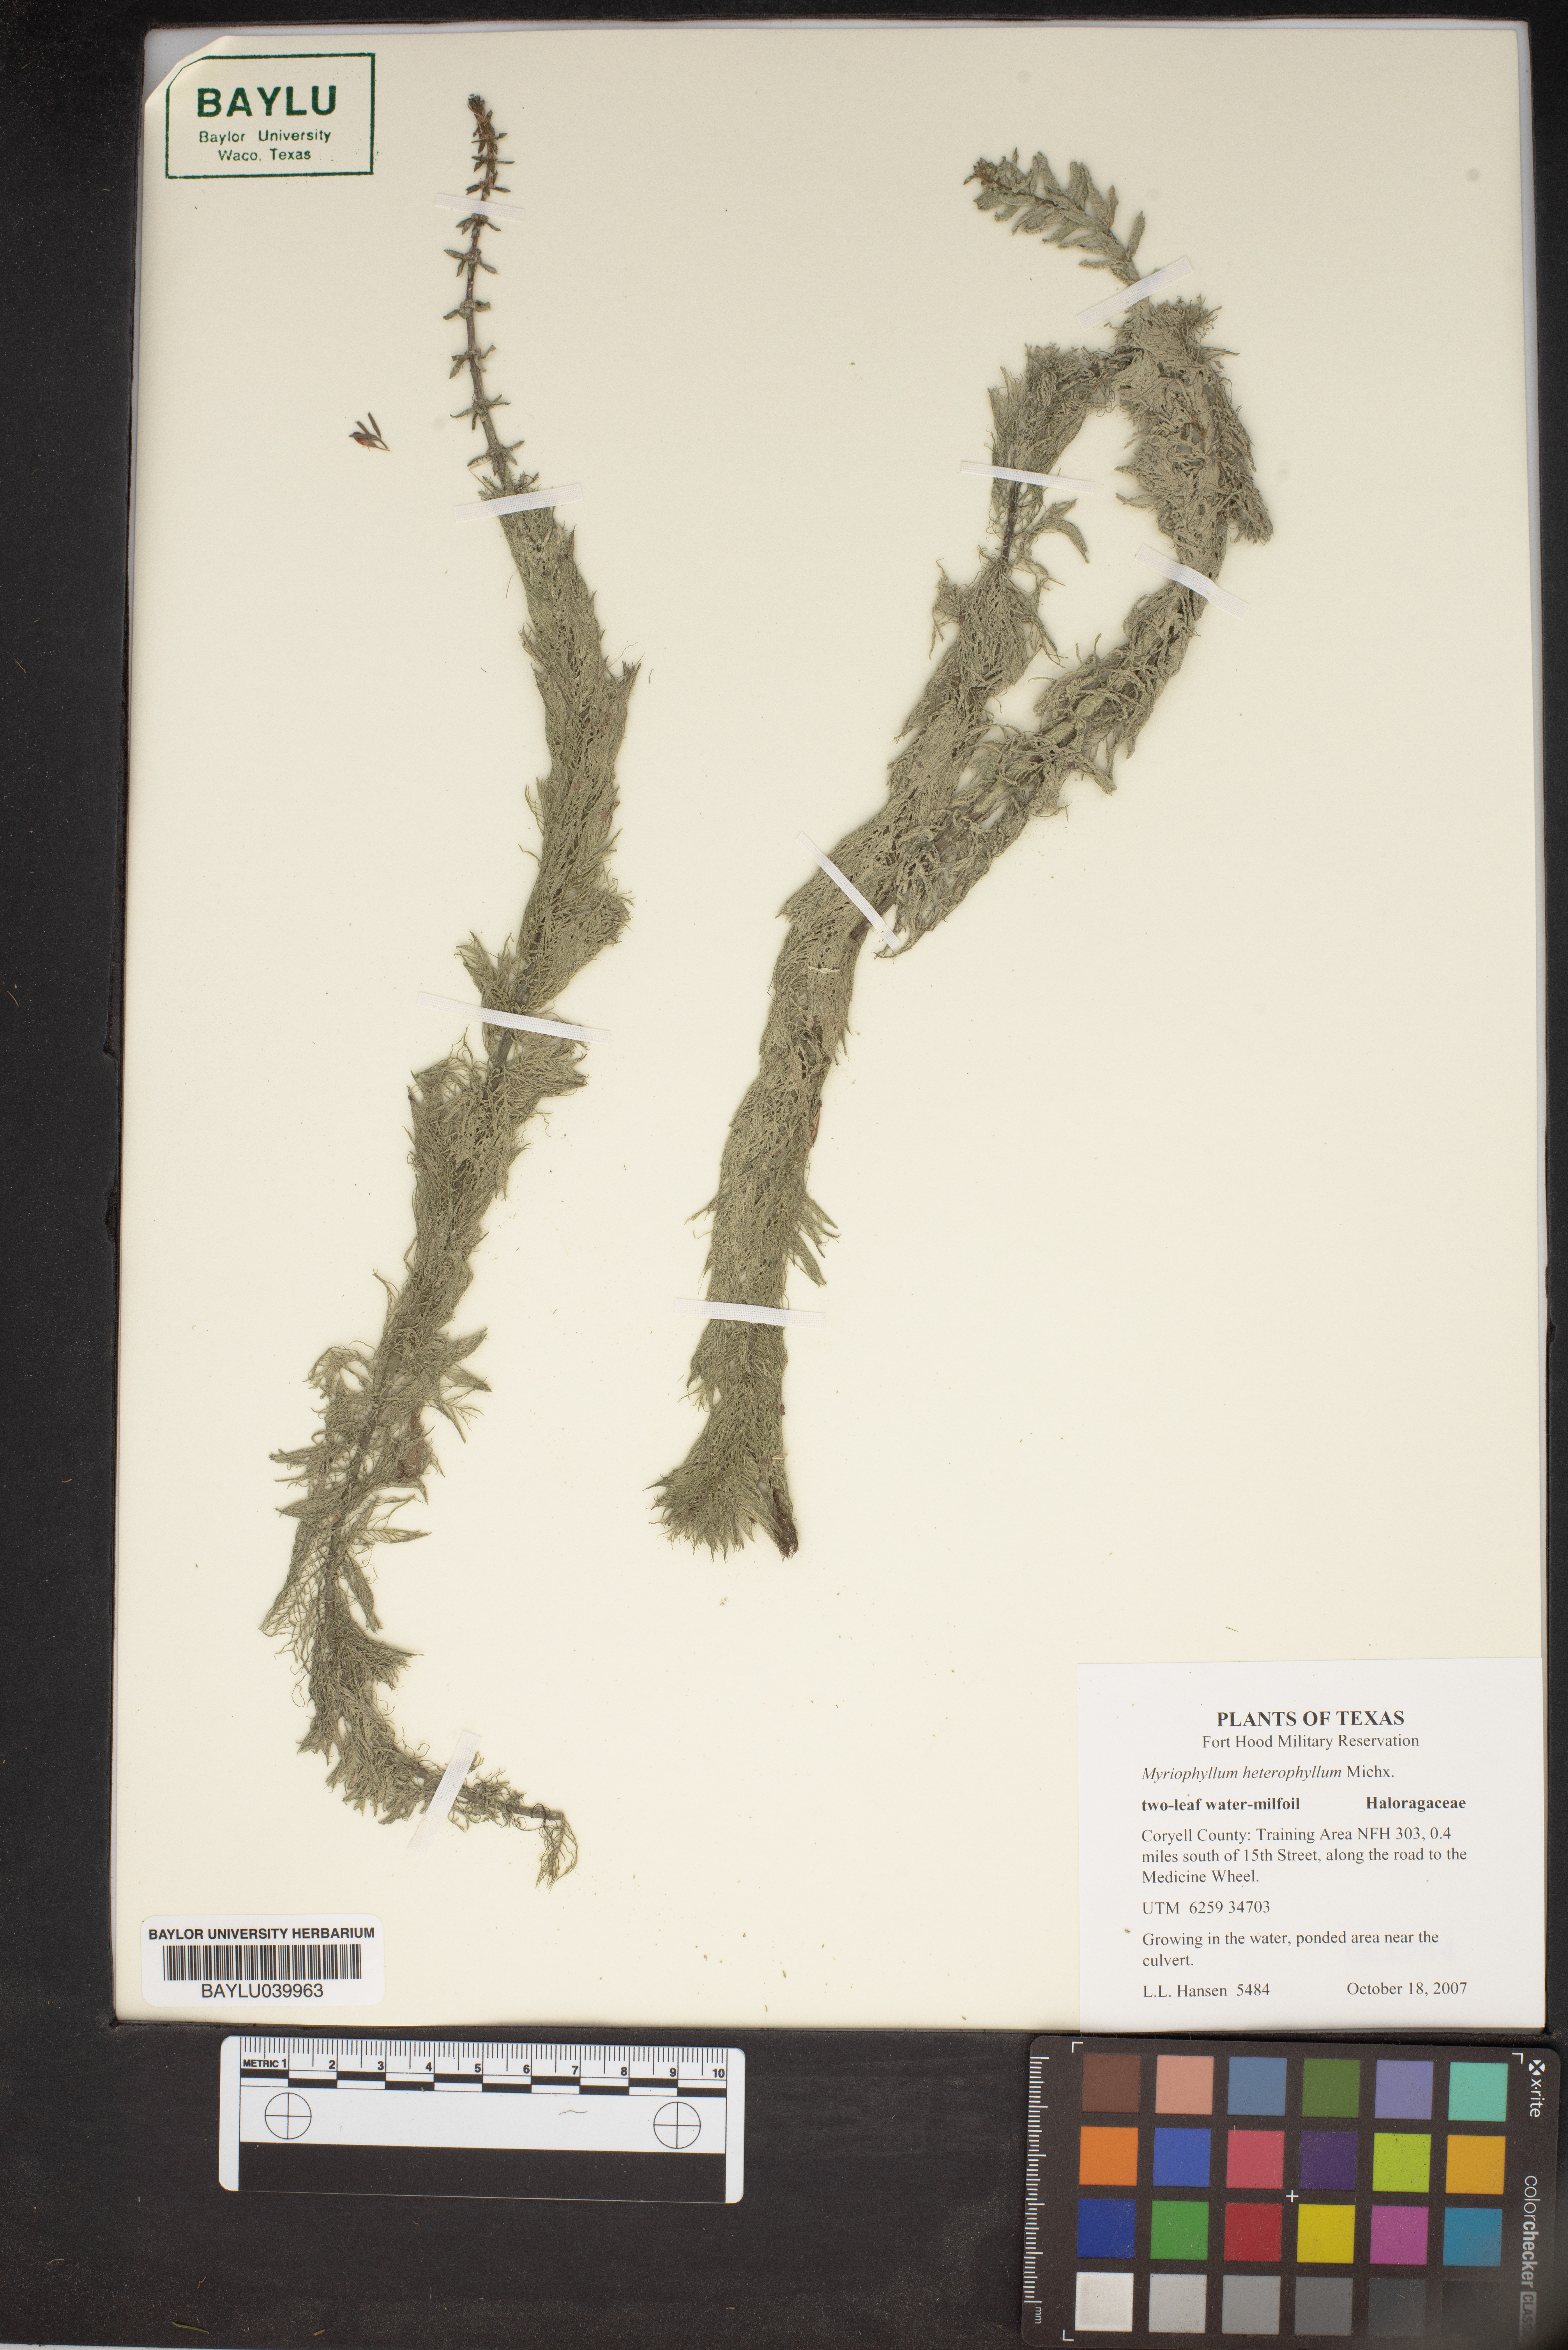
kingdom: Plantae
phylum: Tracheophyta
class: Magnoliopsida
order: Saxifragales
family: Haloragaceae
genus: Myriophyllum
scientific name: Myriophyllum heterophyllum
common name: Variable watermilfoil
